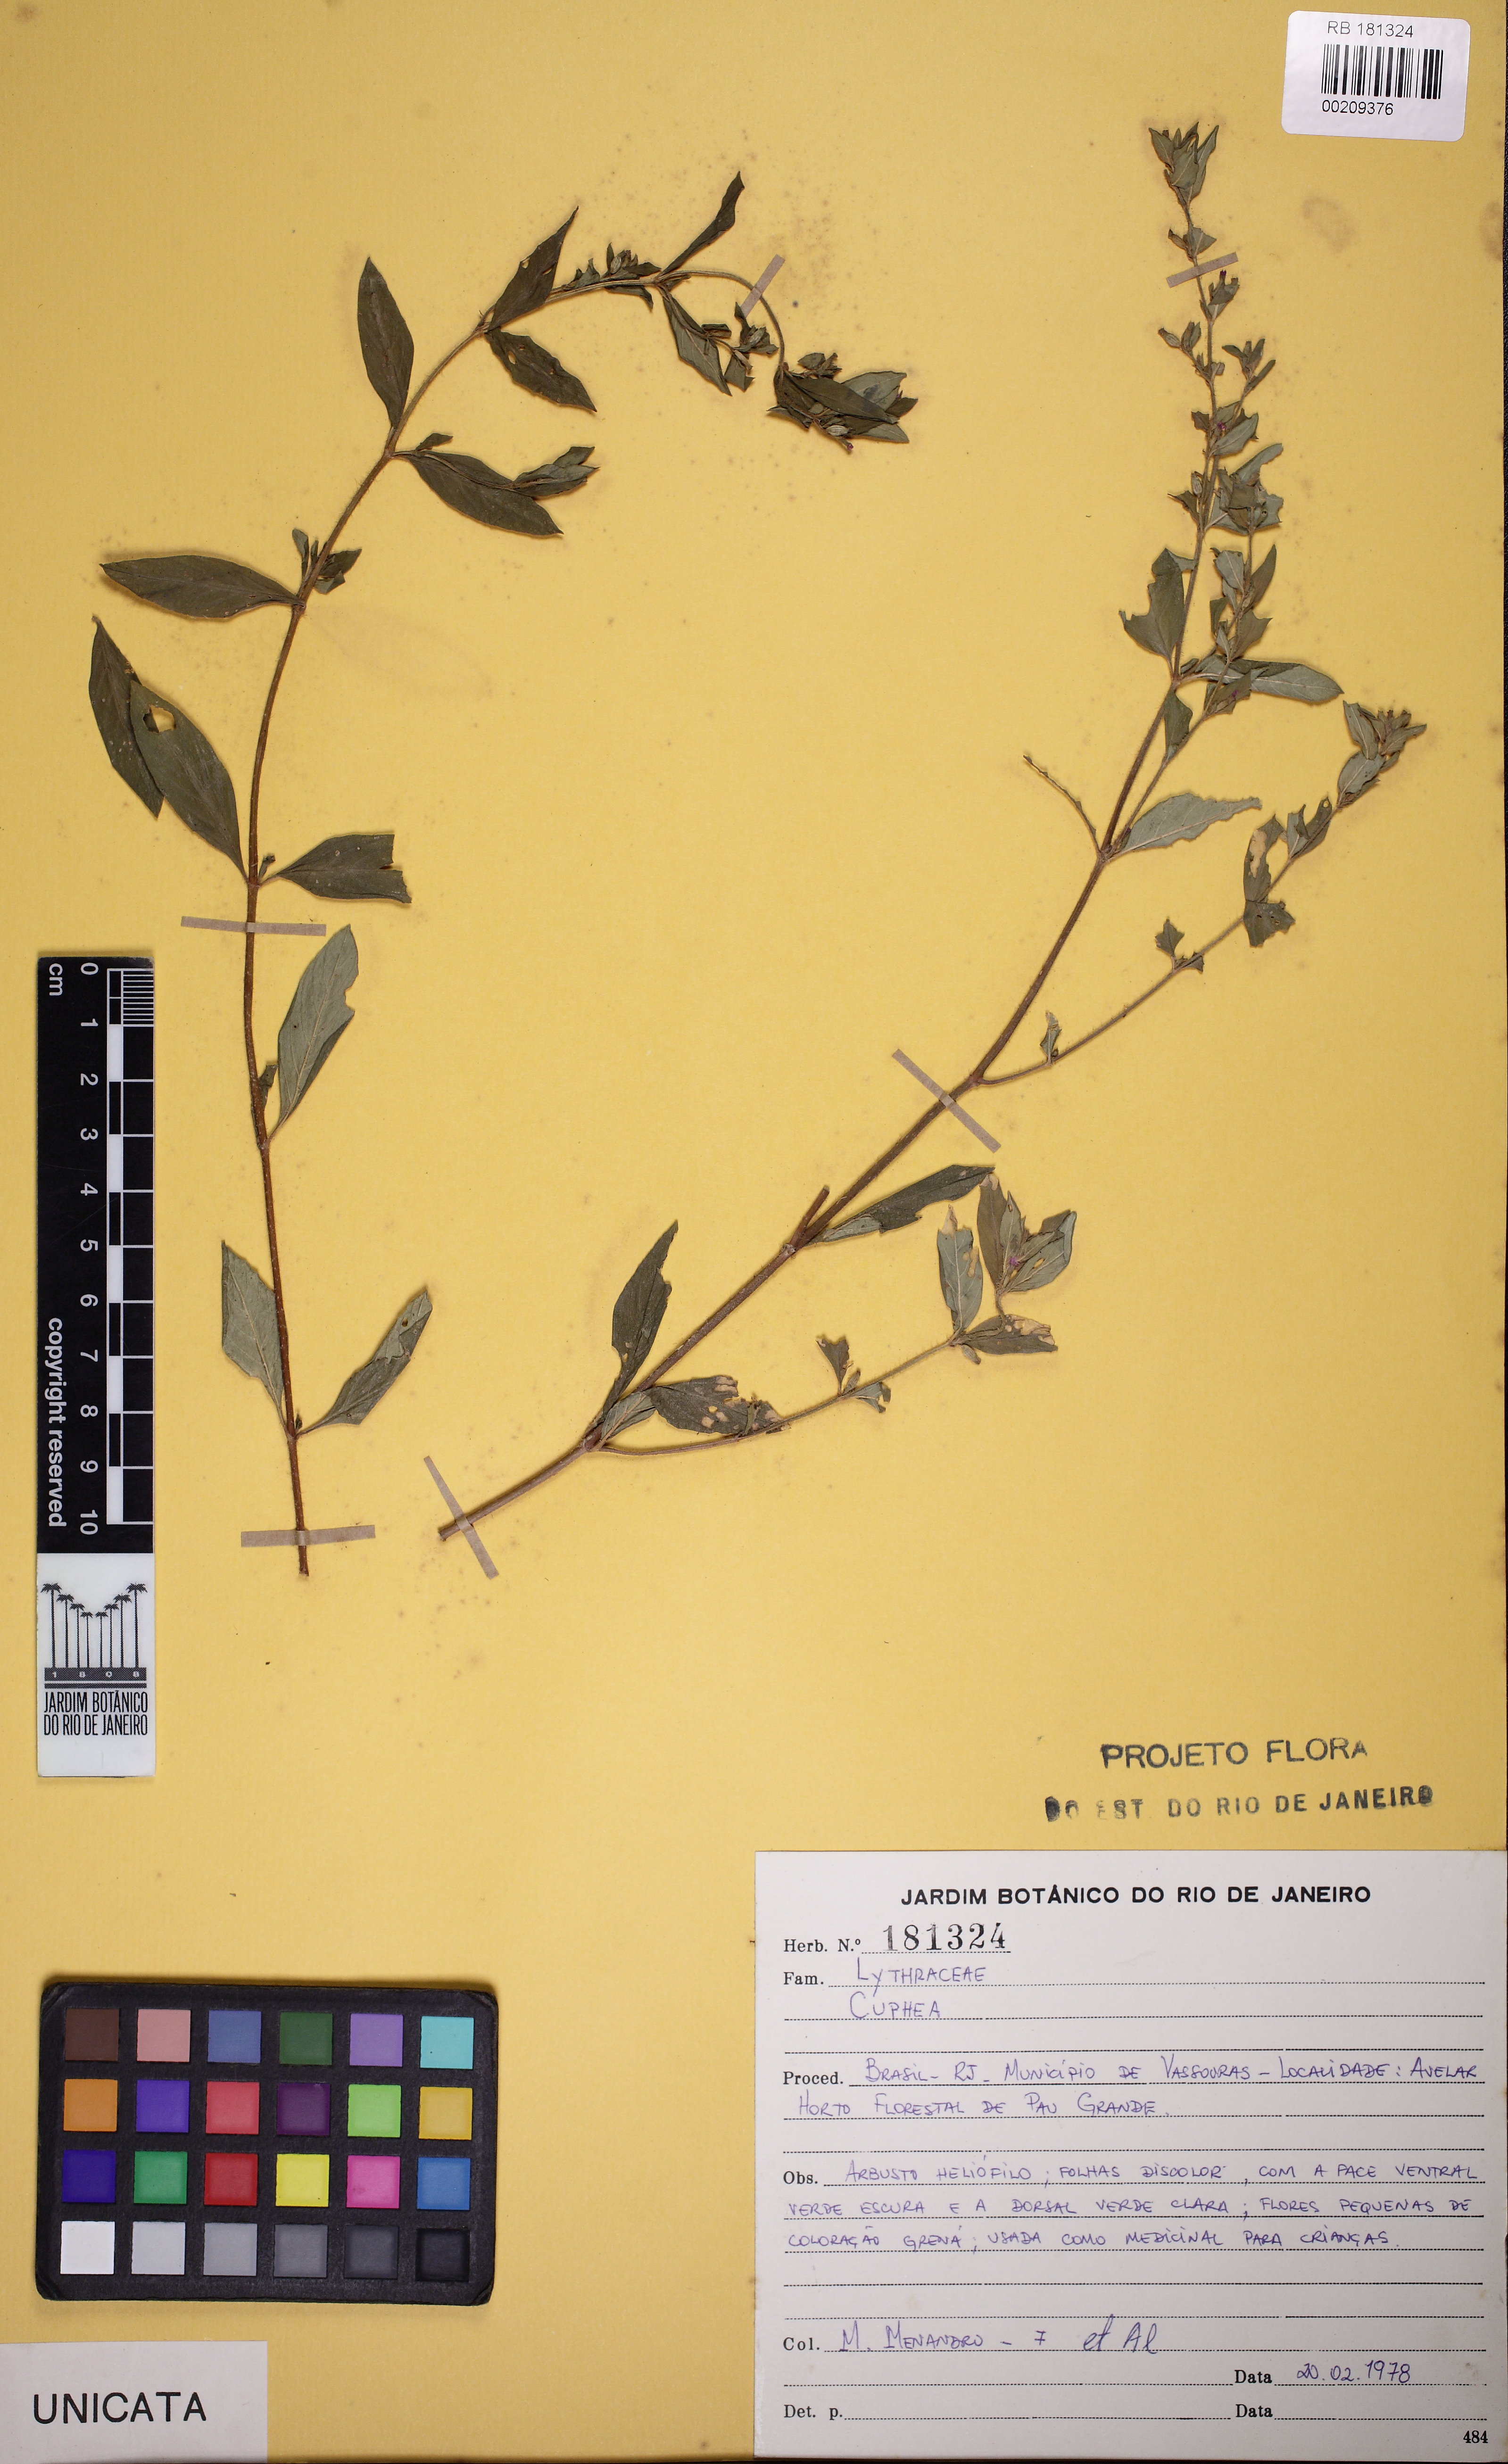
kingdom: Plantae
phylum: Tracheophyta
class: Magnoliopsida
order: Myrtales
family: Lythraceae
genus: Cuphea
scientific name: Cuphea
